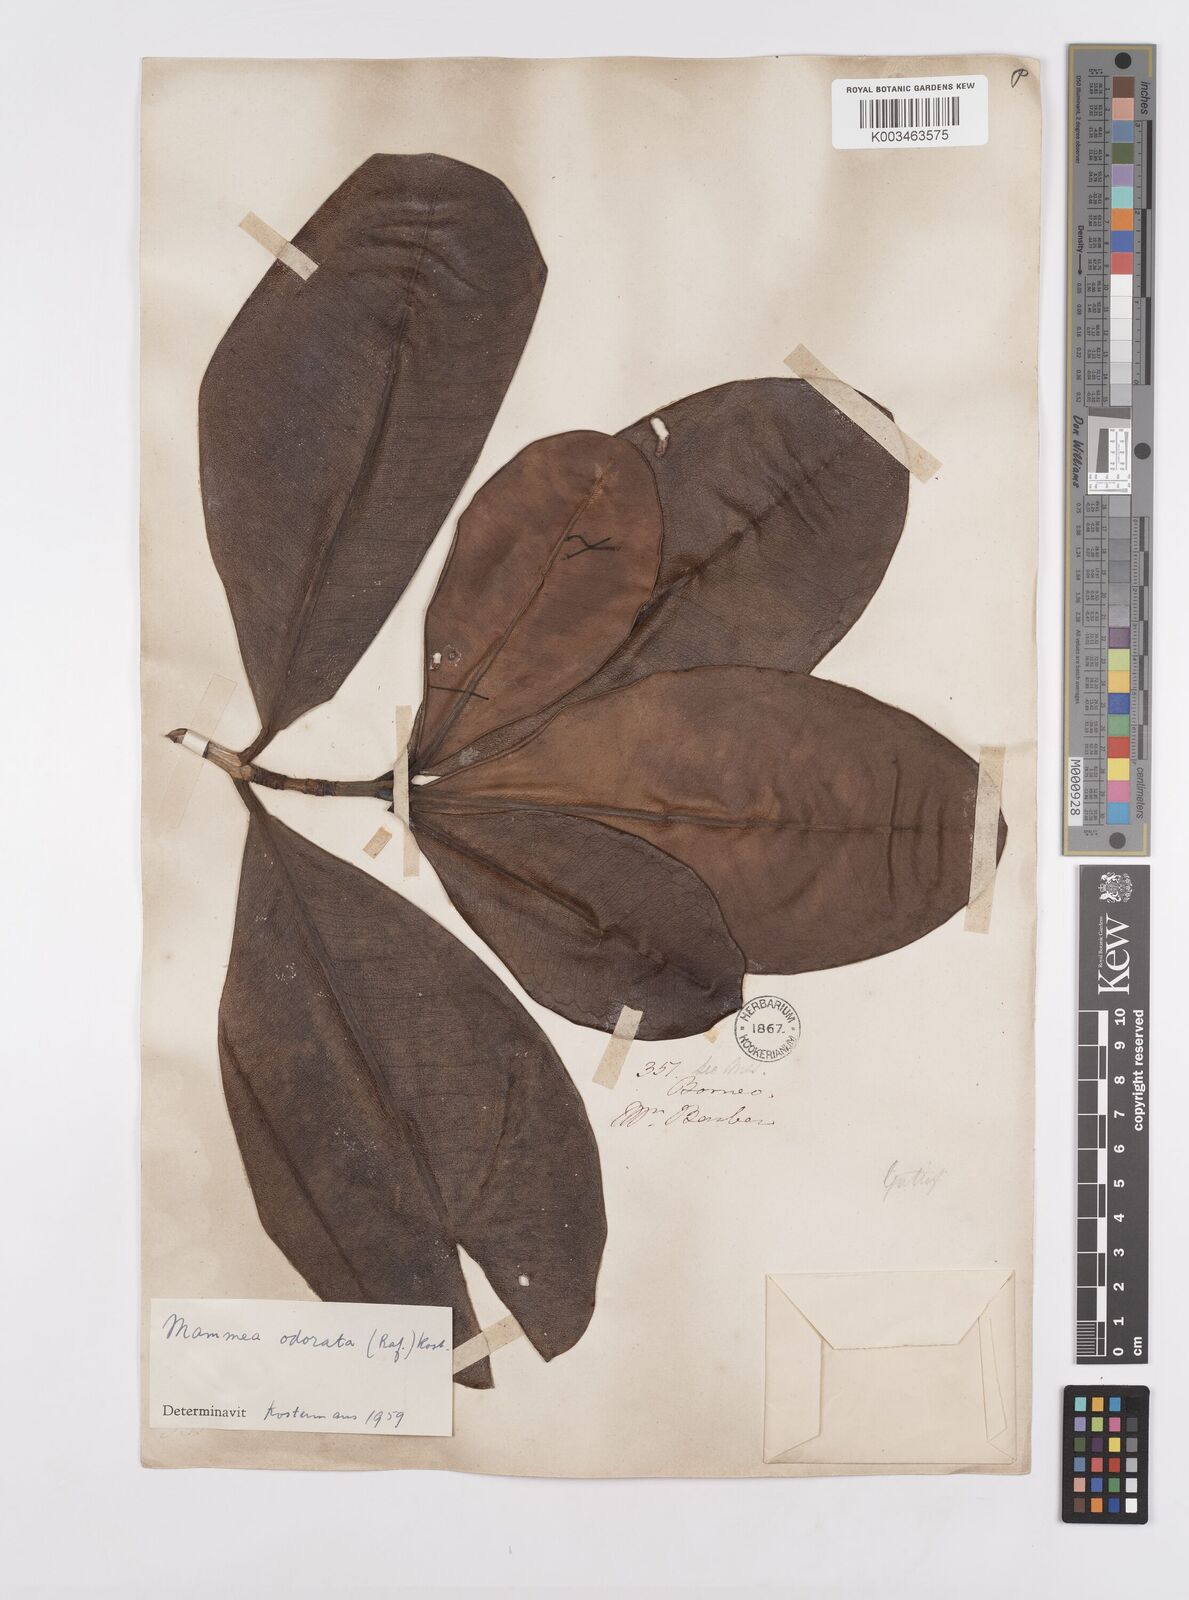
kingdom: Plantae
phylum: Tracheophyta
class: Magnoliopsida
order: Malpighiales
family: Calophyllaceae
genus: Mammea
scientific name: Mammea odorata
